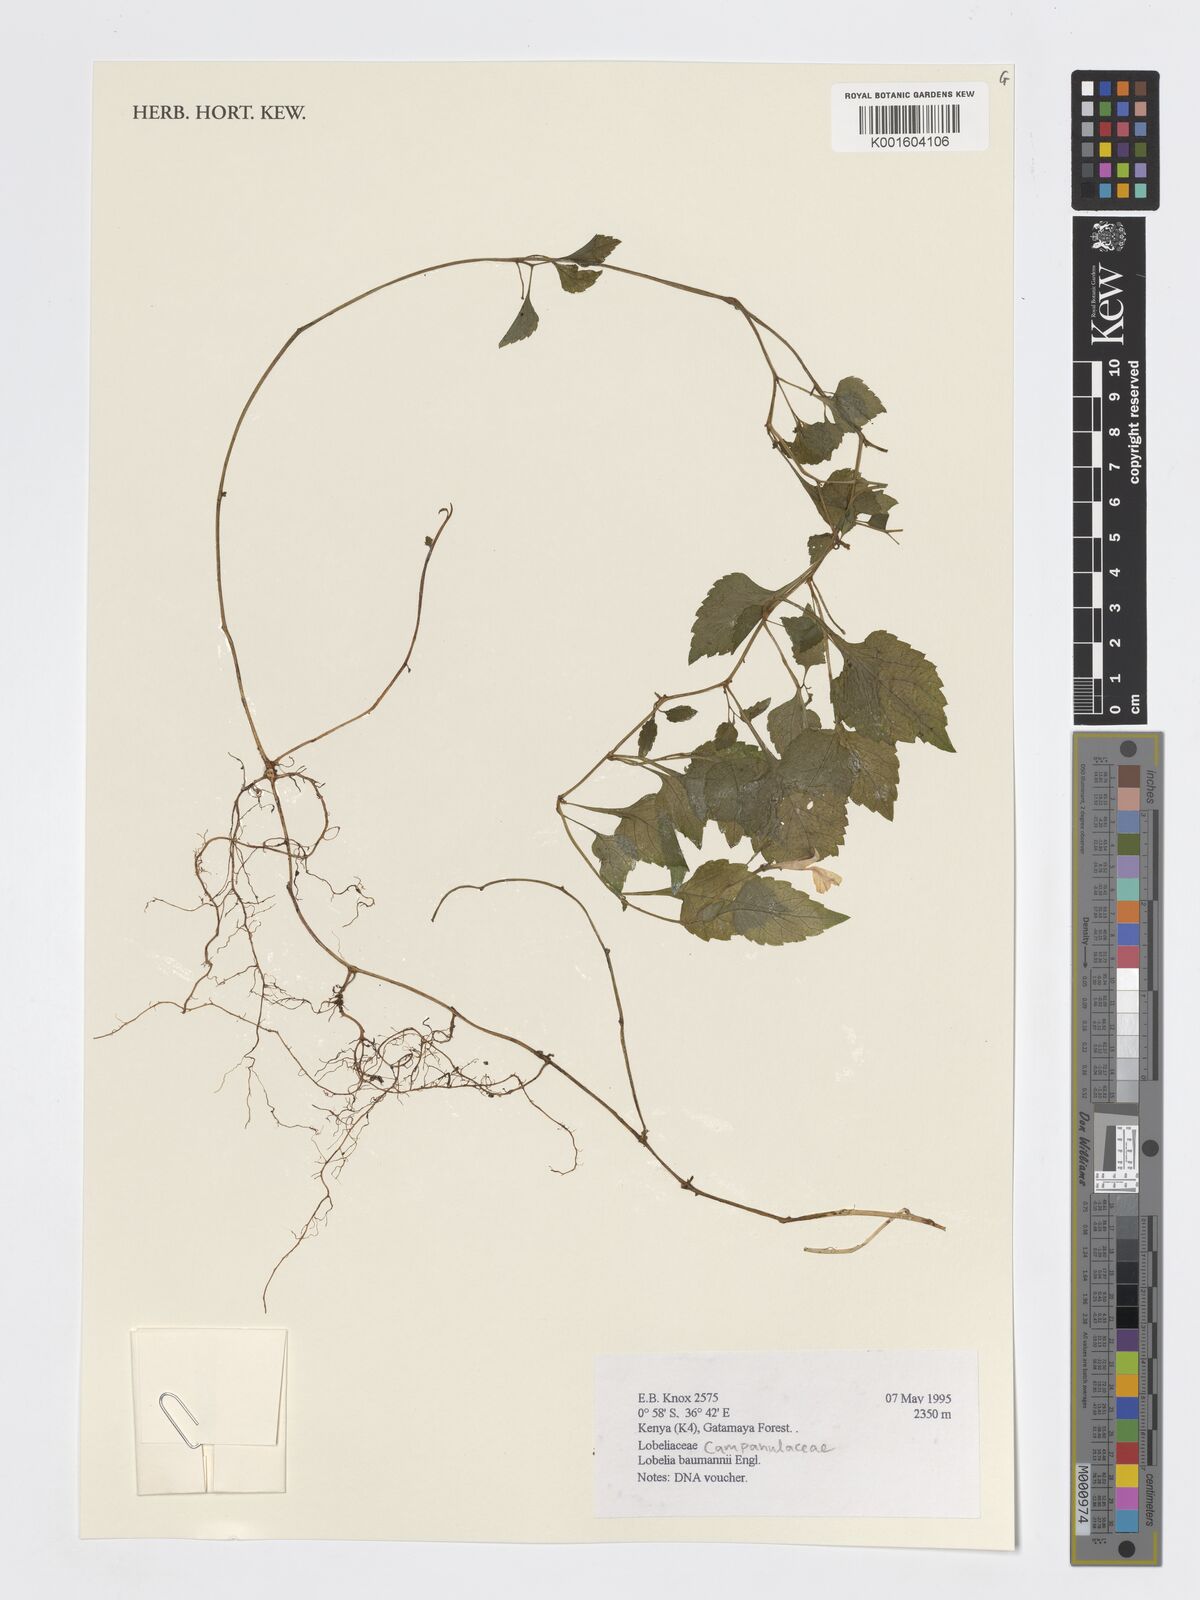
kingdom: Plantae
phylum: Tracheophyta
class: Magnoliopsida
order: Asterales
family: Campanulaceae
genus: Lobelia
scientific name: Lobelia baumannii
